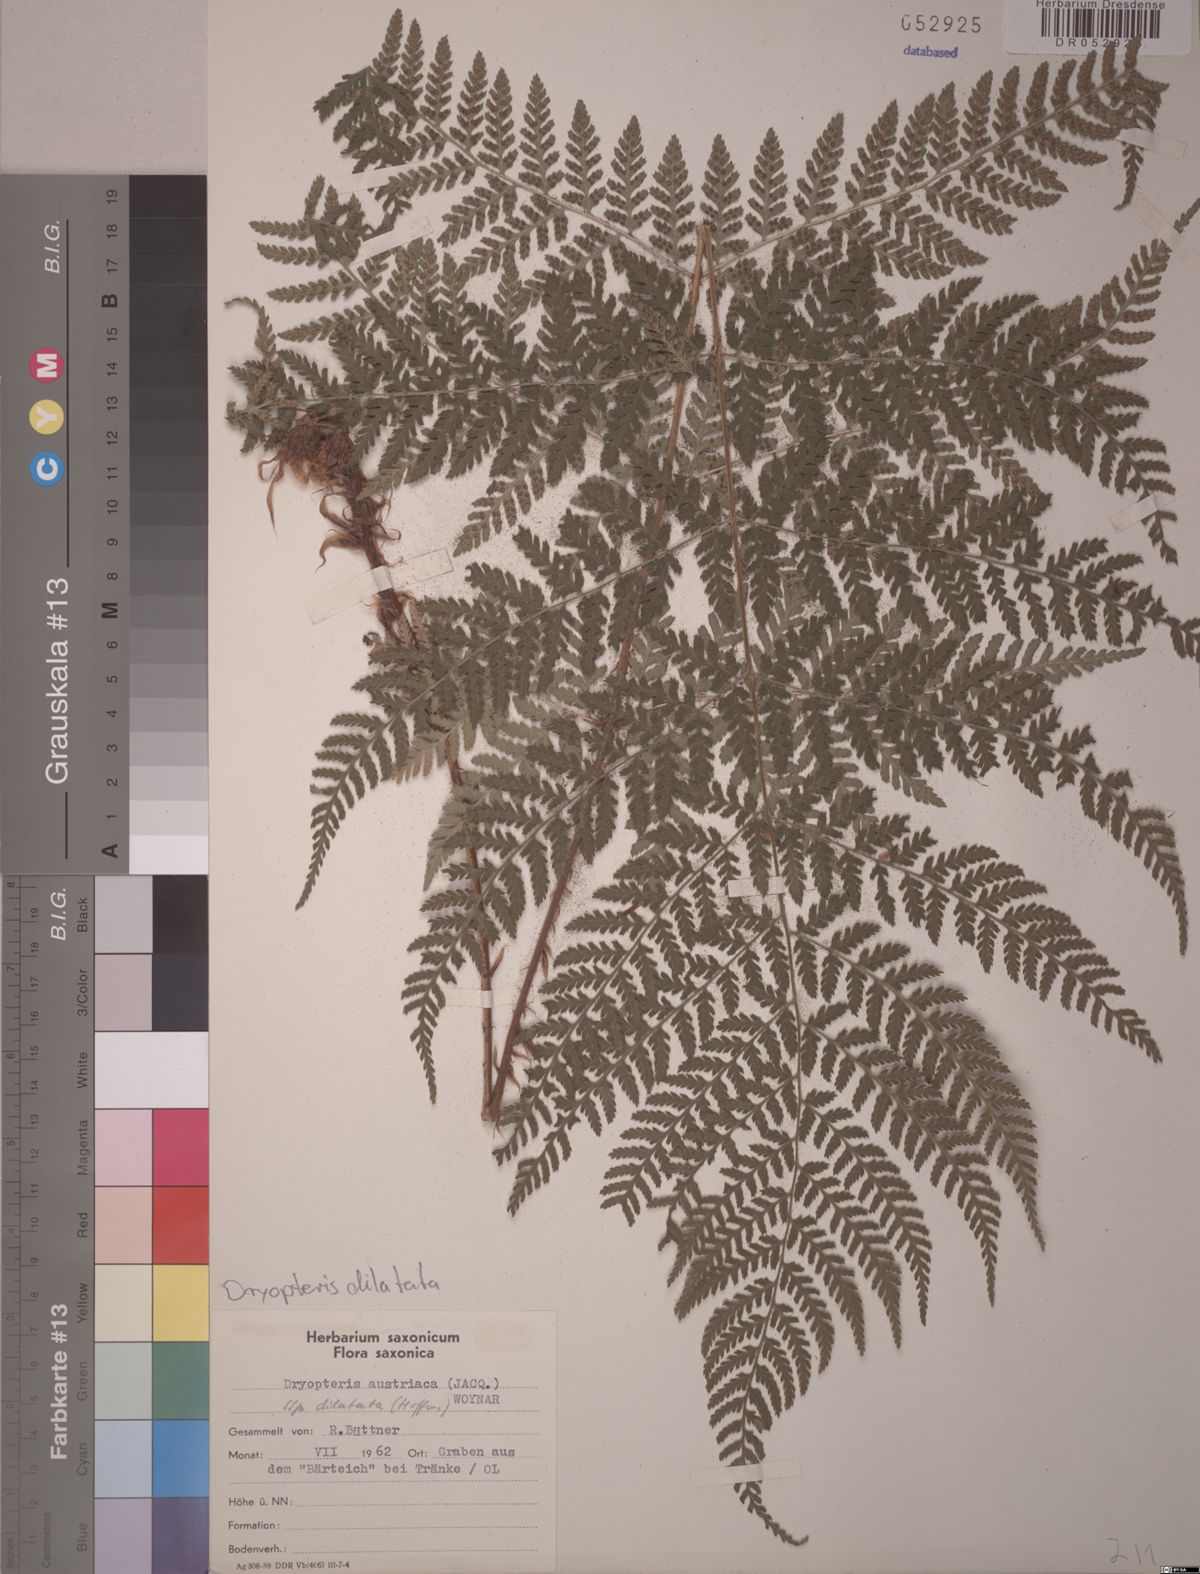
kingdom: Plantae
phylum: Tracheophyta
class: Polypodiopsida
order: Polypodiales
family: Dryopteridaceae
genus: Dryopteris
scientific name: Dryopteris dilatata
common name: Broad buckler-fern
